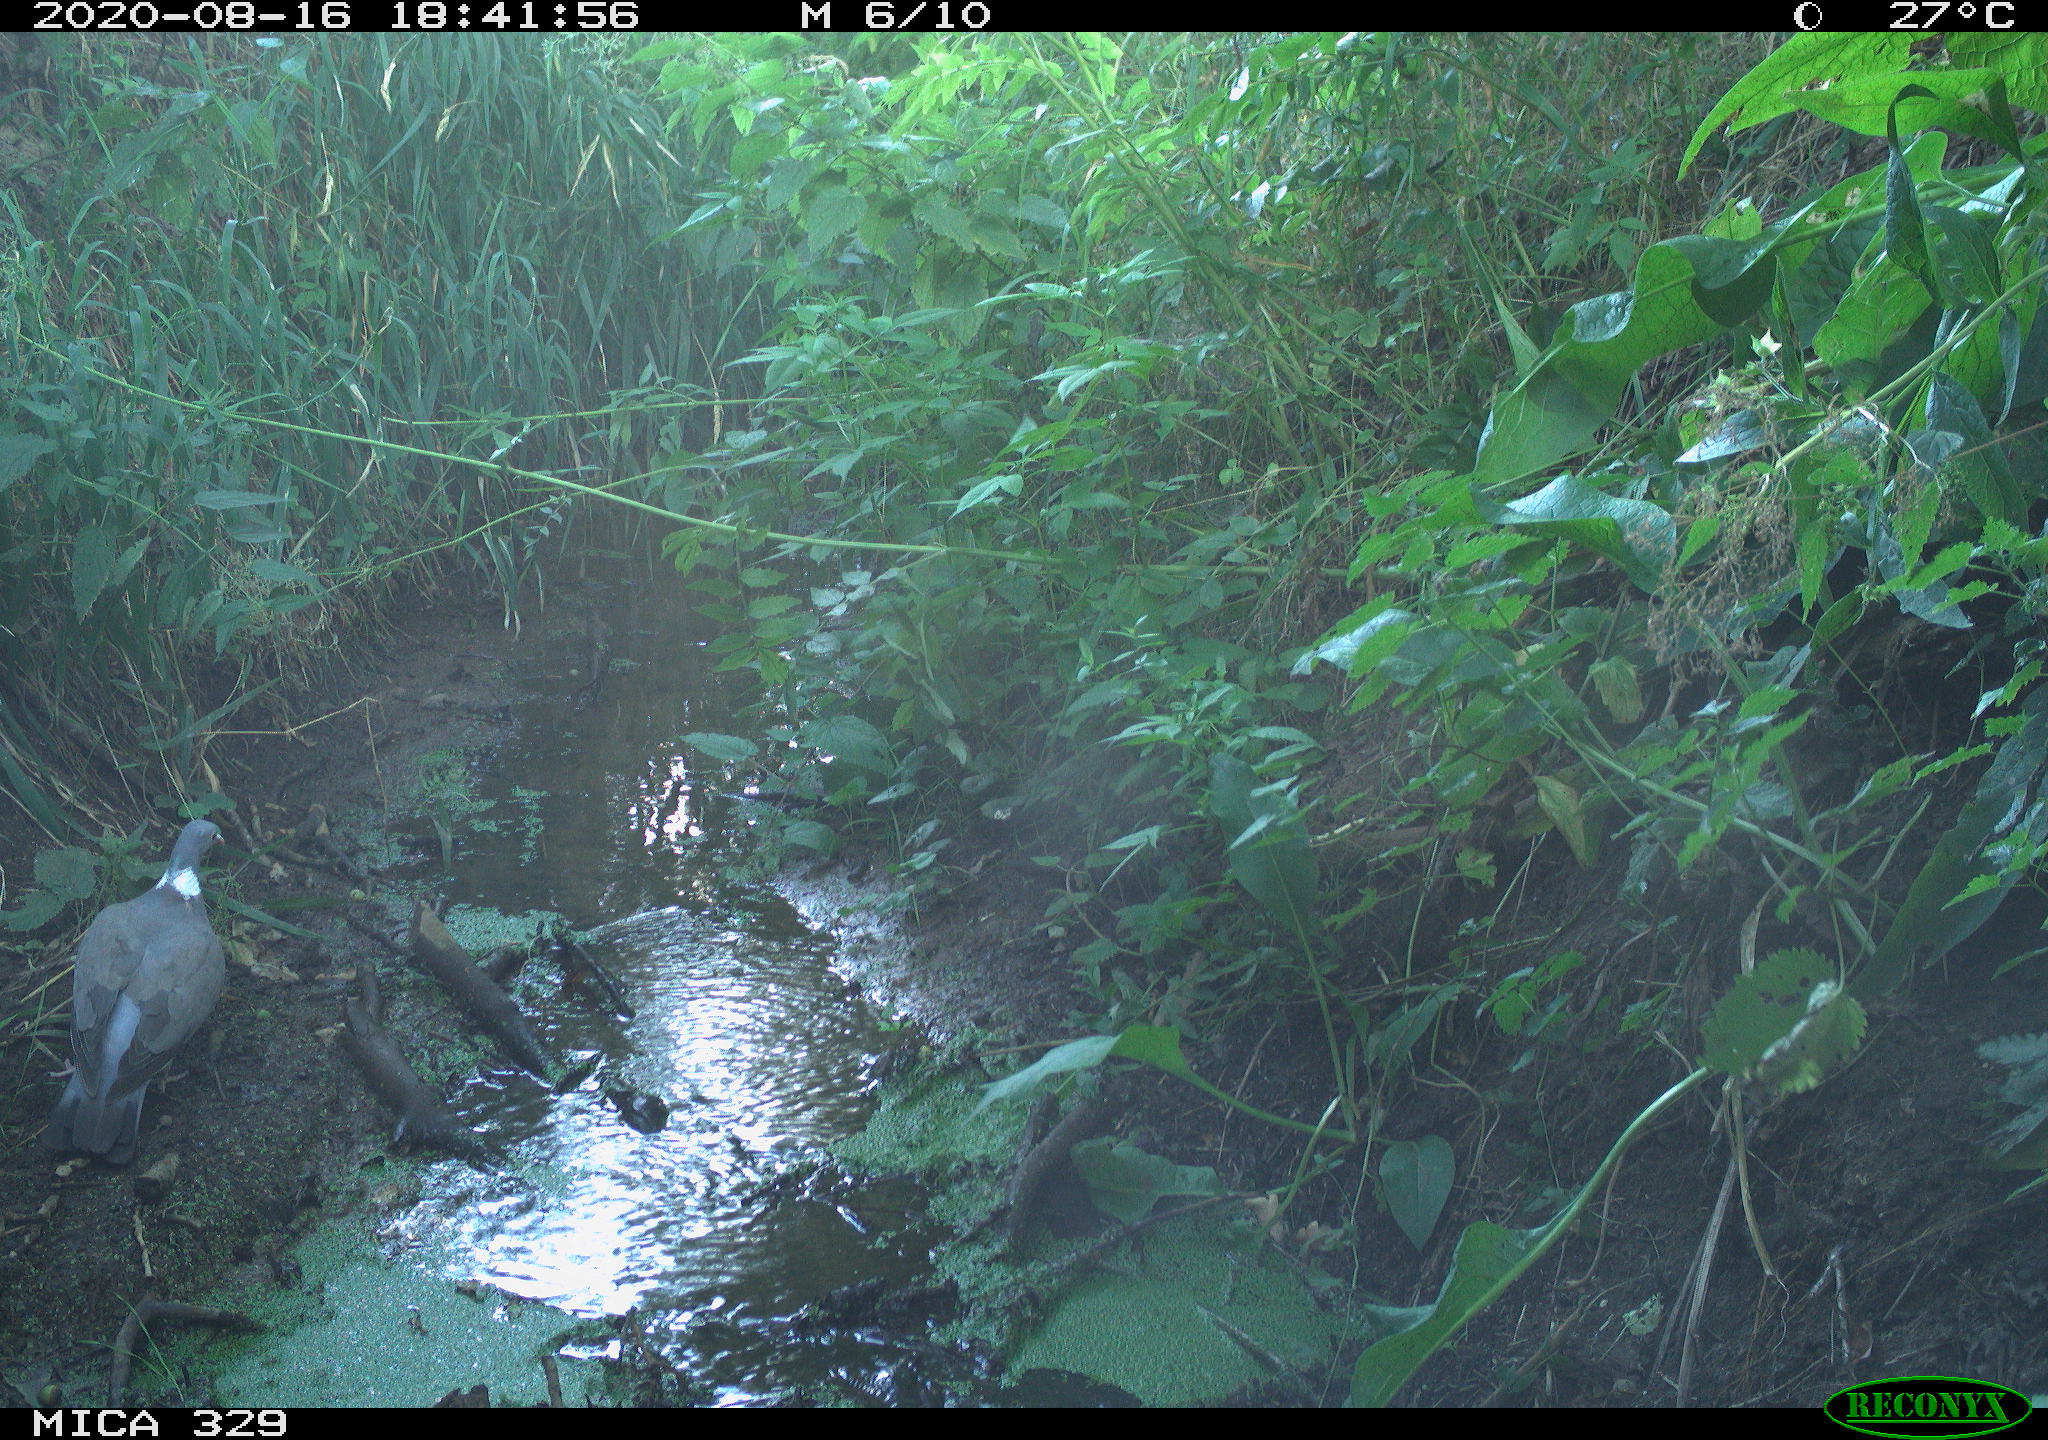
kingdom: Animalia
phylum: Chordata
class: Aves
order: Columbiformes
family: Columbidae
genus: Columba
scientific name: Columba palumbus
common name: Common wood pigeon
